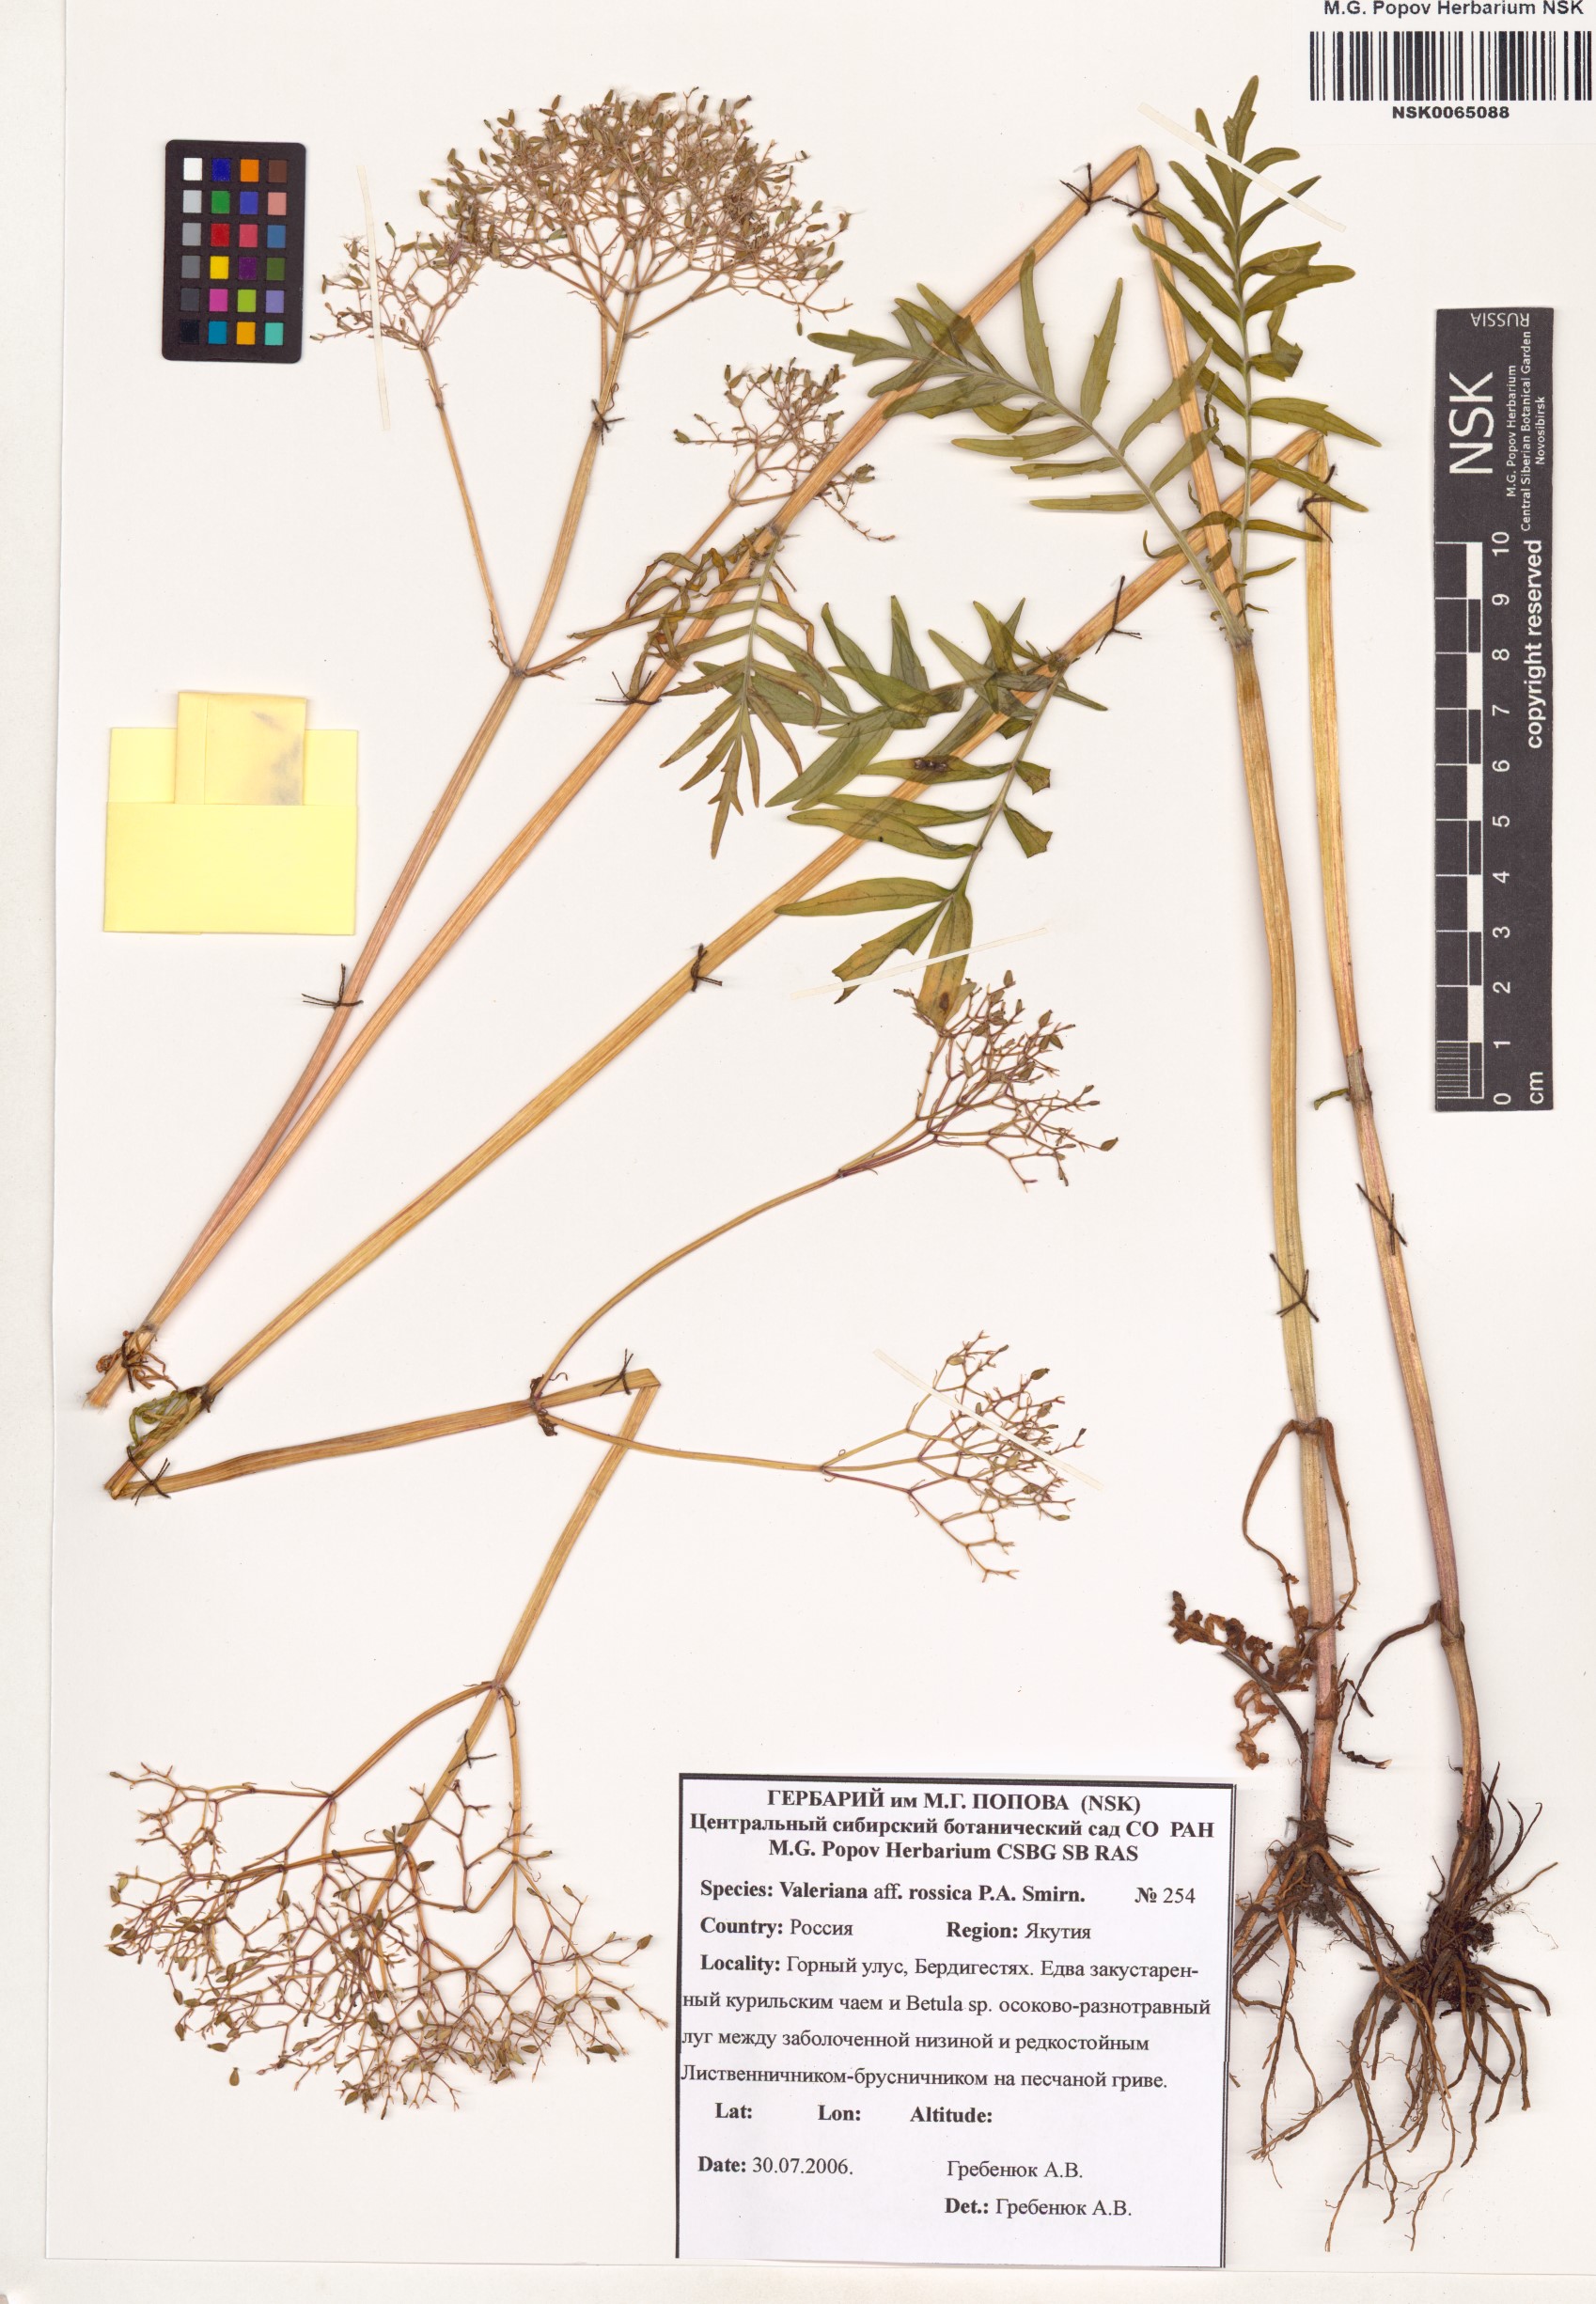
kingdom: Plantae
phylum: Tracheophyta
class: Magnoliopsida
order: Dipsacales
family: Caprifoliaceae
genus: Valeriana
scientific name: Valeriana rossica
